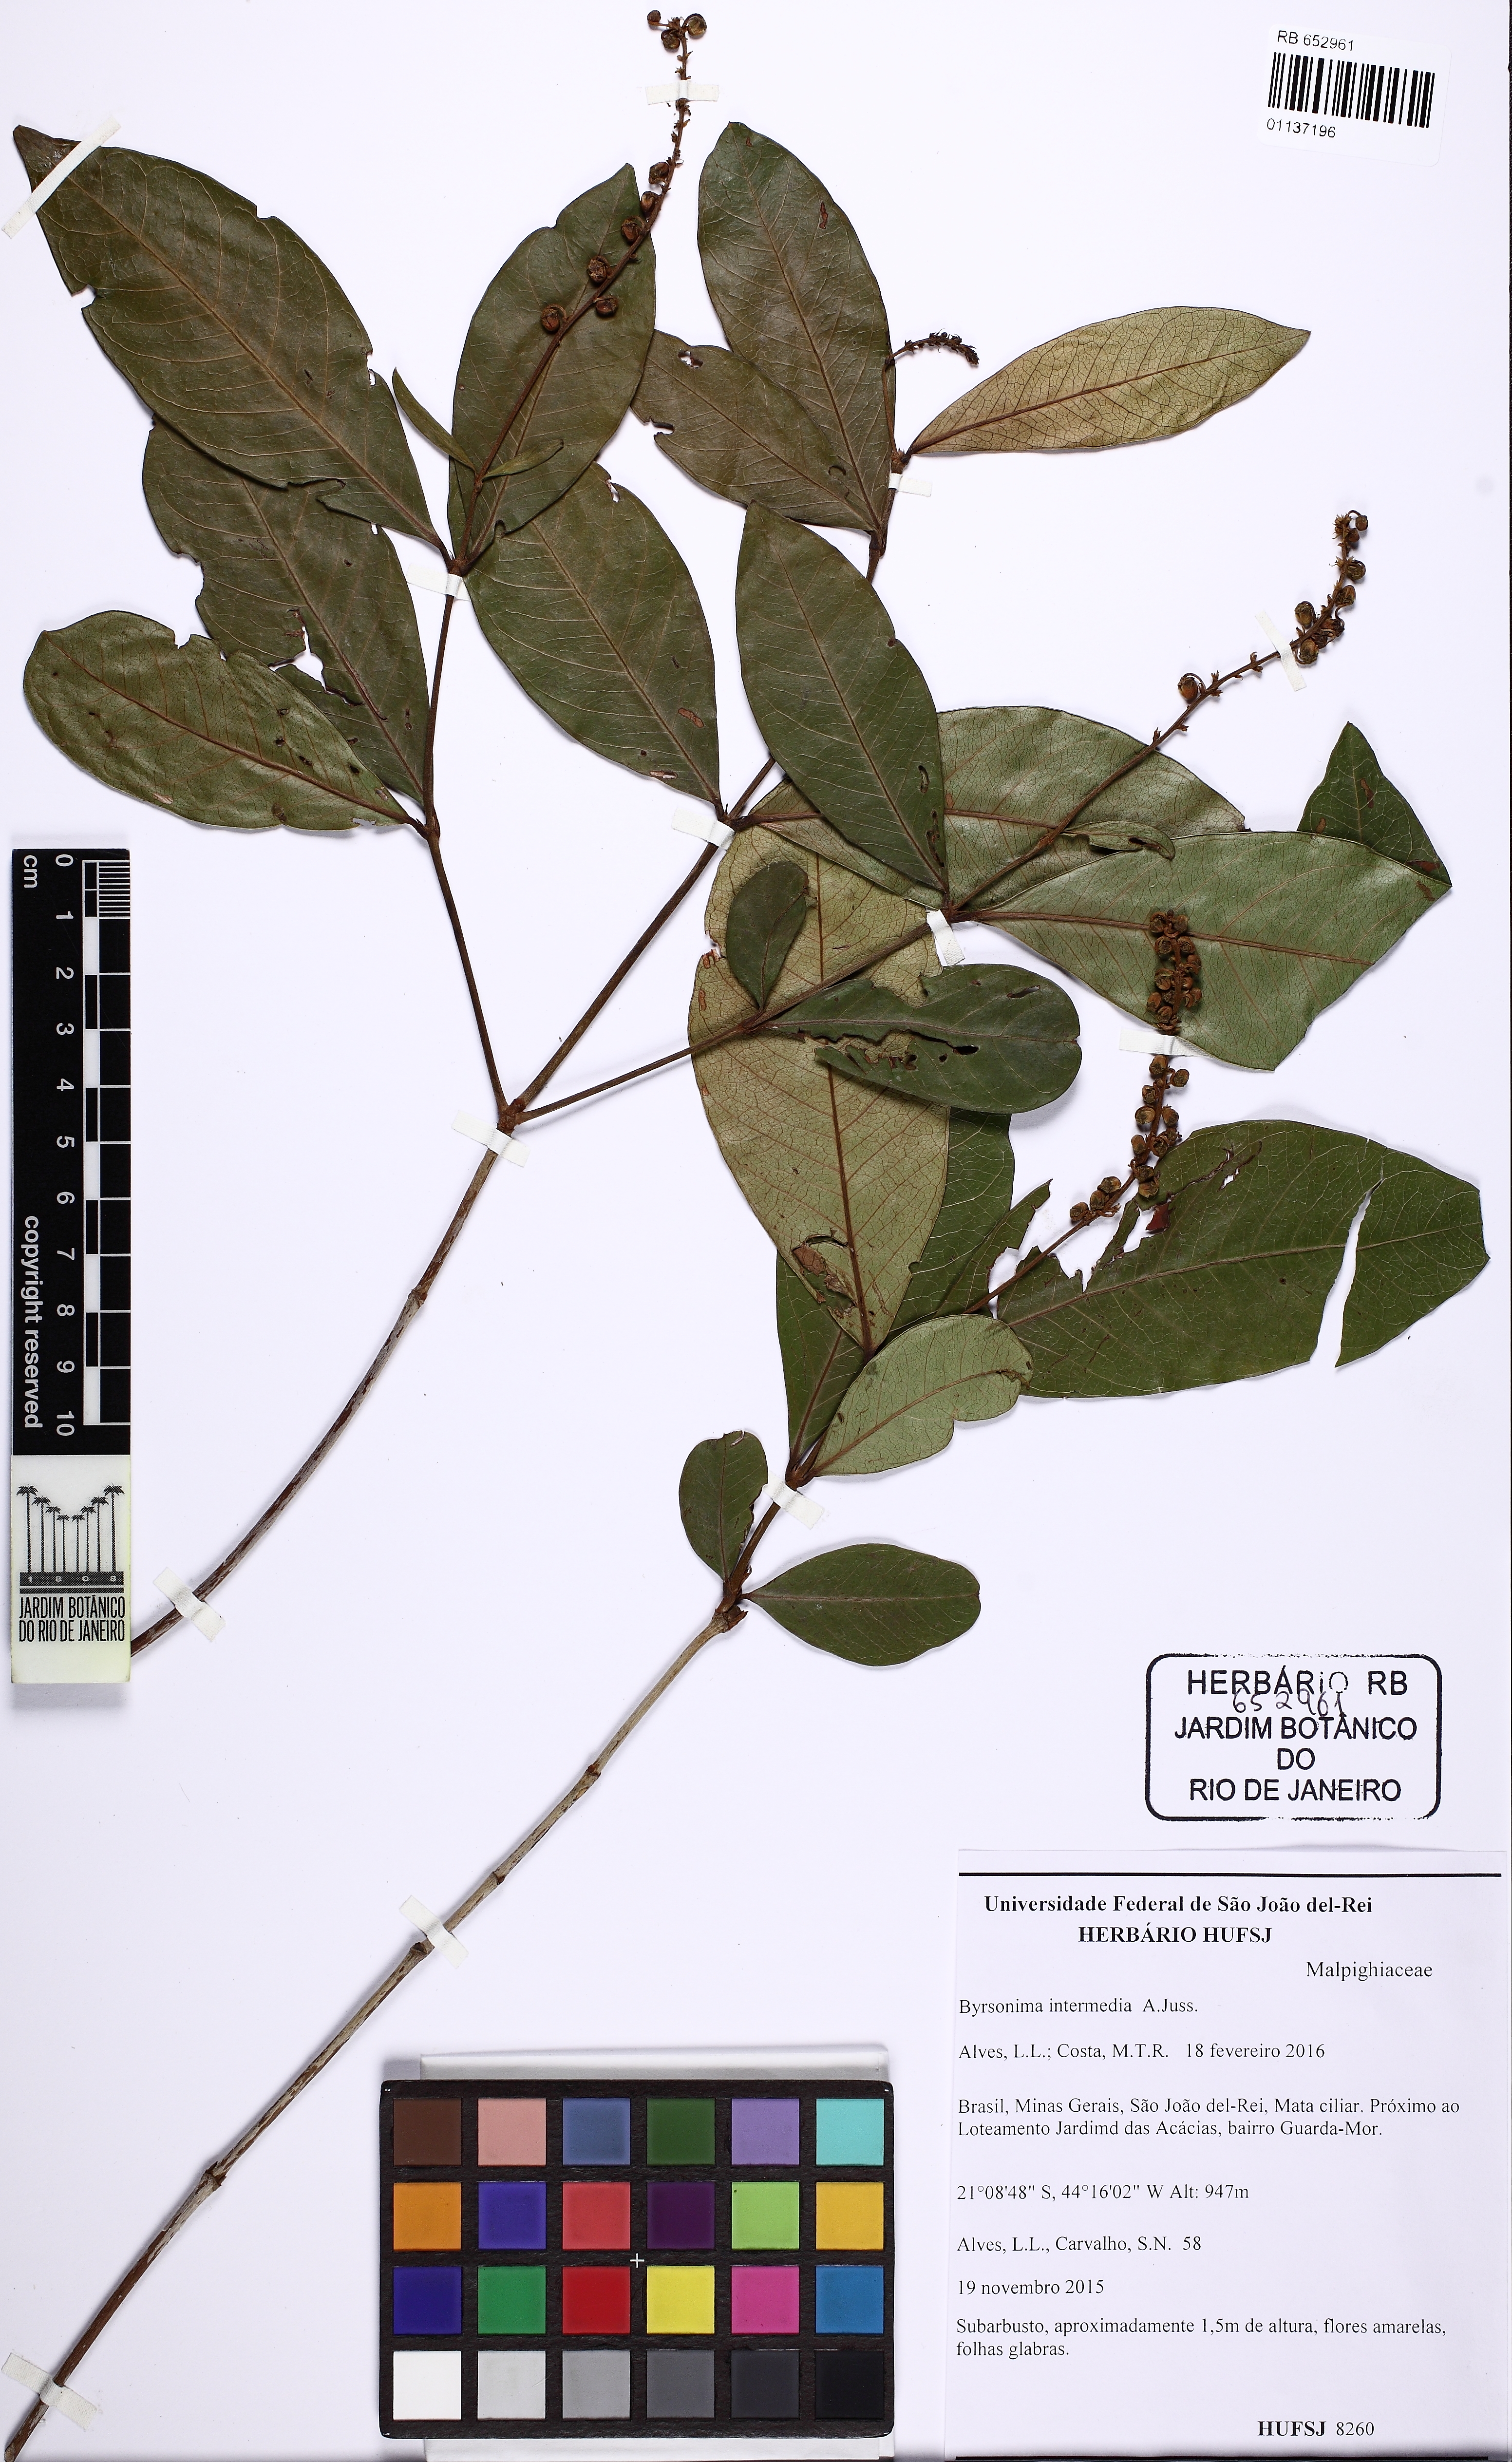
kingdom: Plantae
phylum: Tracheophyta
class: Magnoliopsida
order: Malpighiales
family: Malpighiaceae
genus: Byrsonima
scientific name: Byrsonima intermedia
